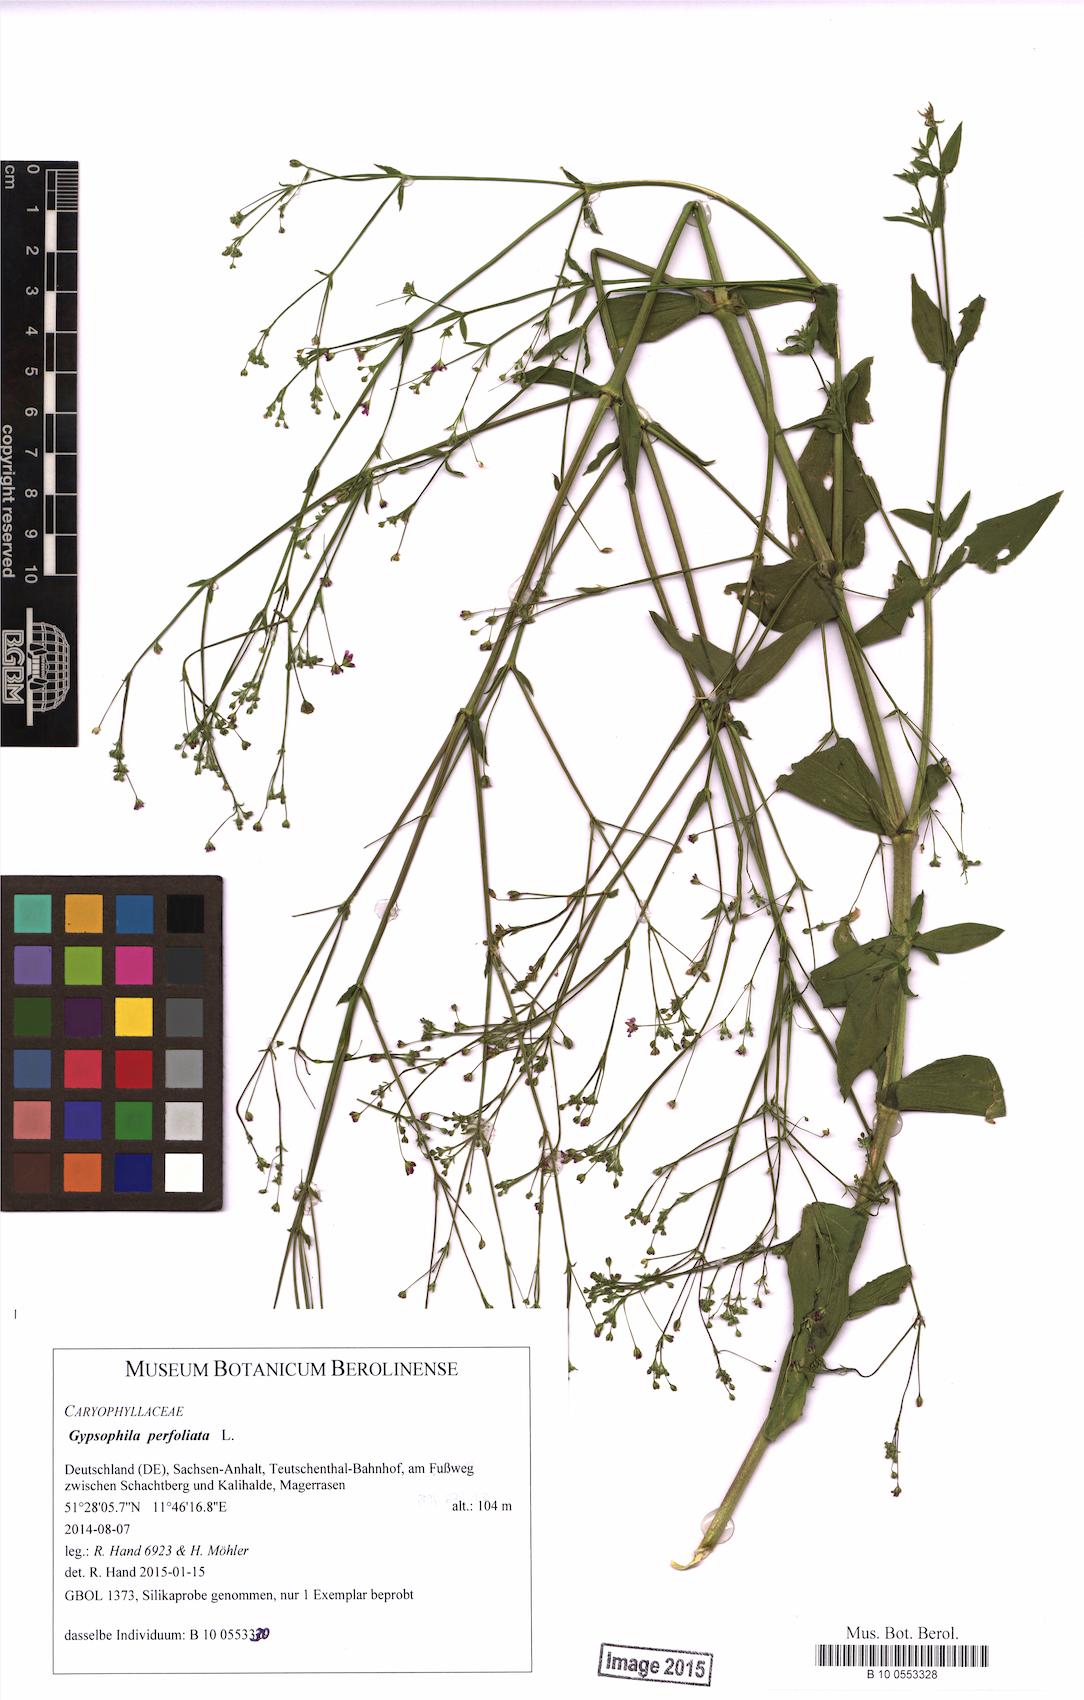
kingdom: Plantae
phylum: Tracheophyta
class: Magnoliopsida
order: Caryophyllales
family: Caryophyllaceae
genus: Gypsophila
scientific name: Gypsophila perfoliata
